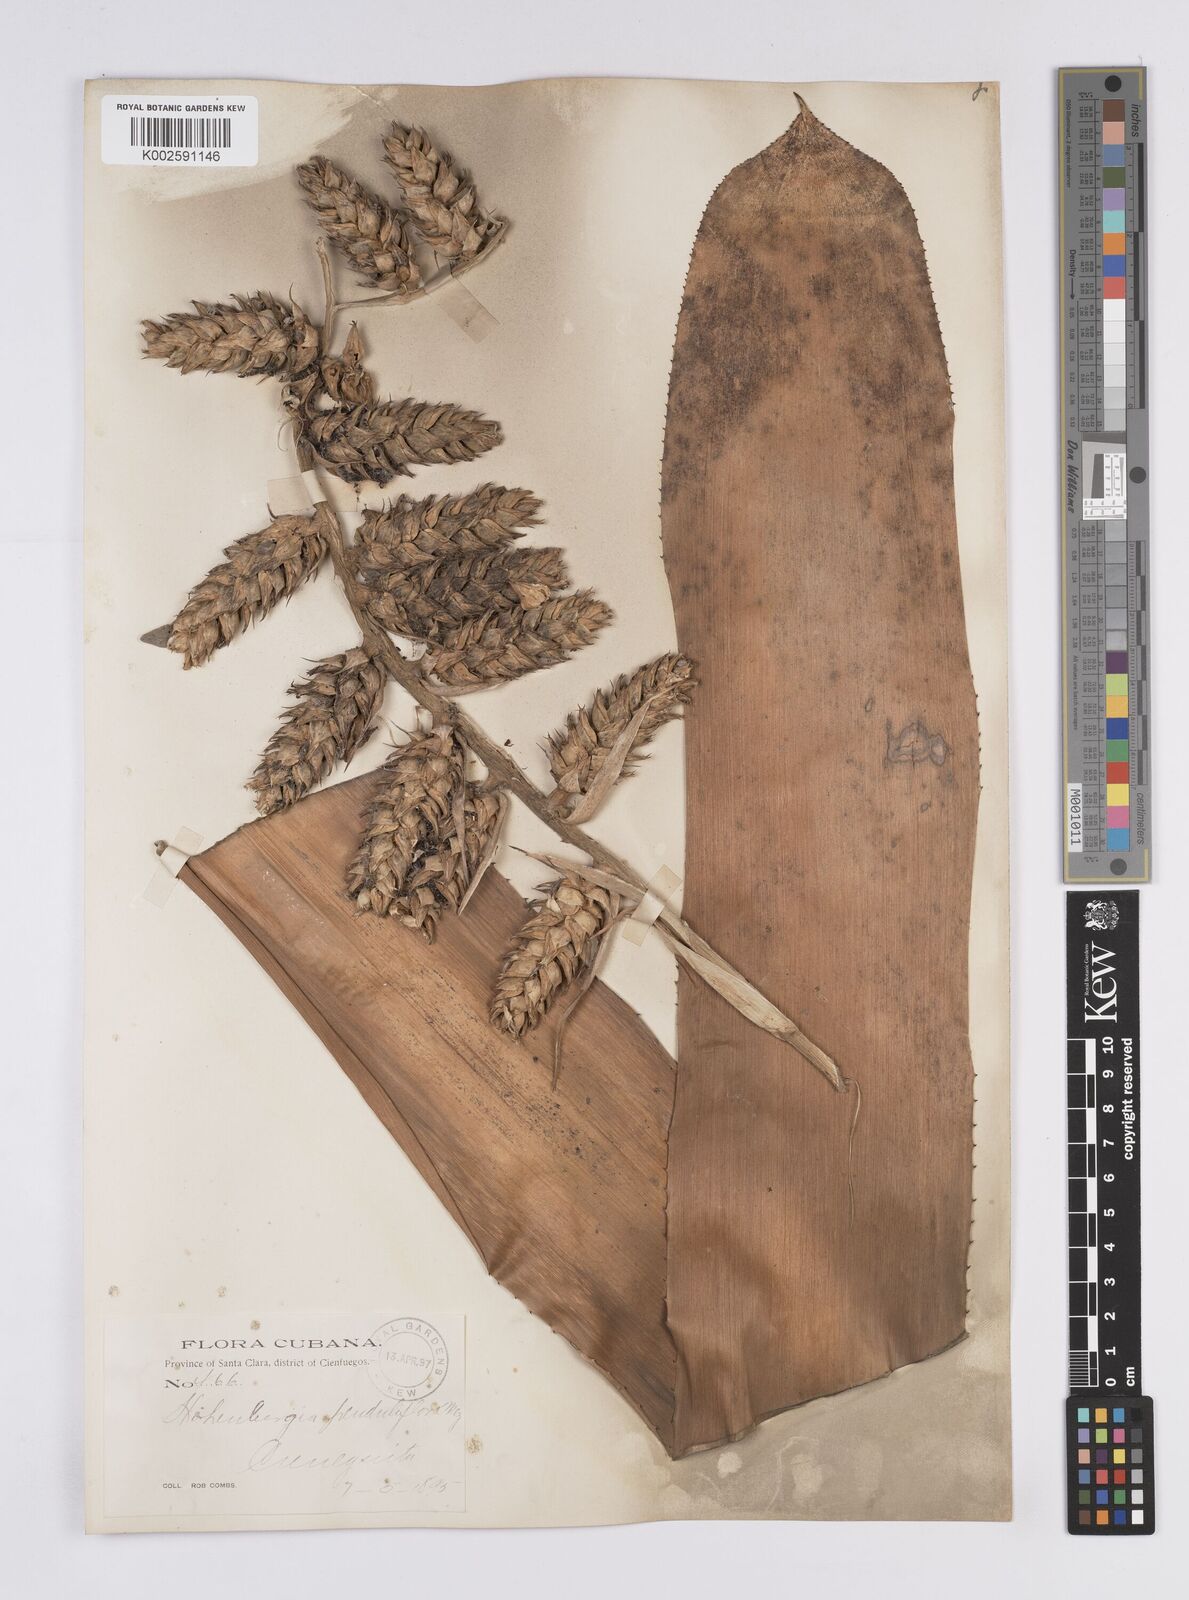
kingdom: Plantae
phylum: Tracheophyta
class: Liliopsida
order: Poales
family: Bromeliaceae
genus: Wittmackia
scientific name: Wittmackia penduliflora
